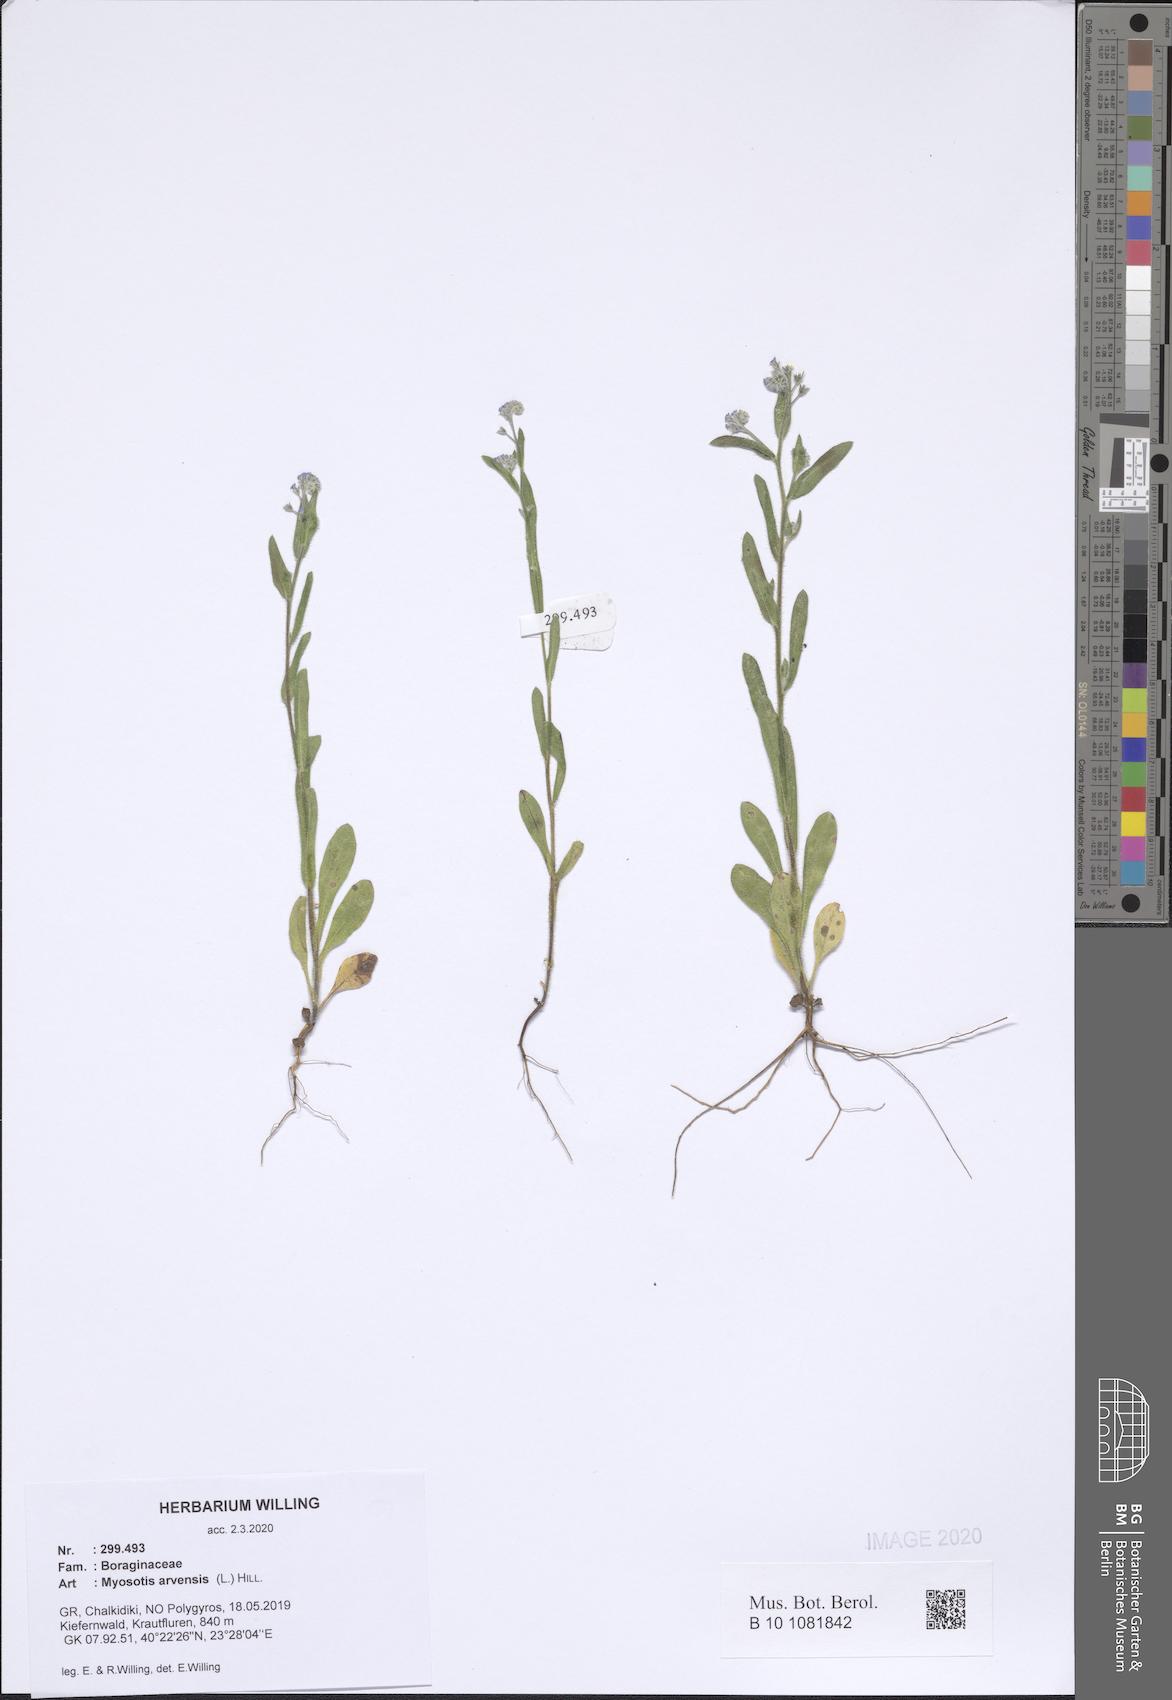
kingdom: Plantae
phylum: Tracheophyta
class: Magnoliopsida
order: Boraginales
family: Boraginaceae
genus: Myosotis
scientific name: Myosotis arvensis
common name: Field forget-me-not
